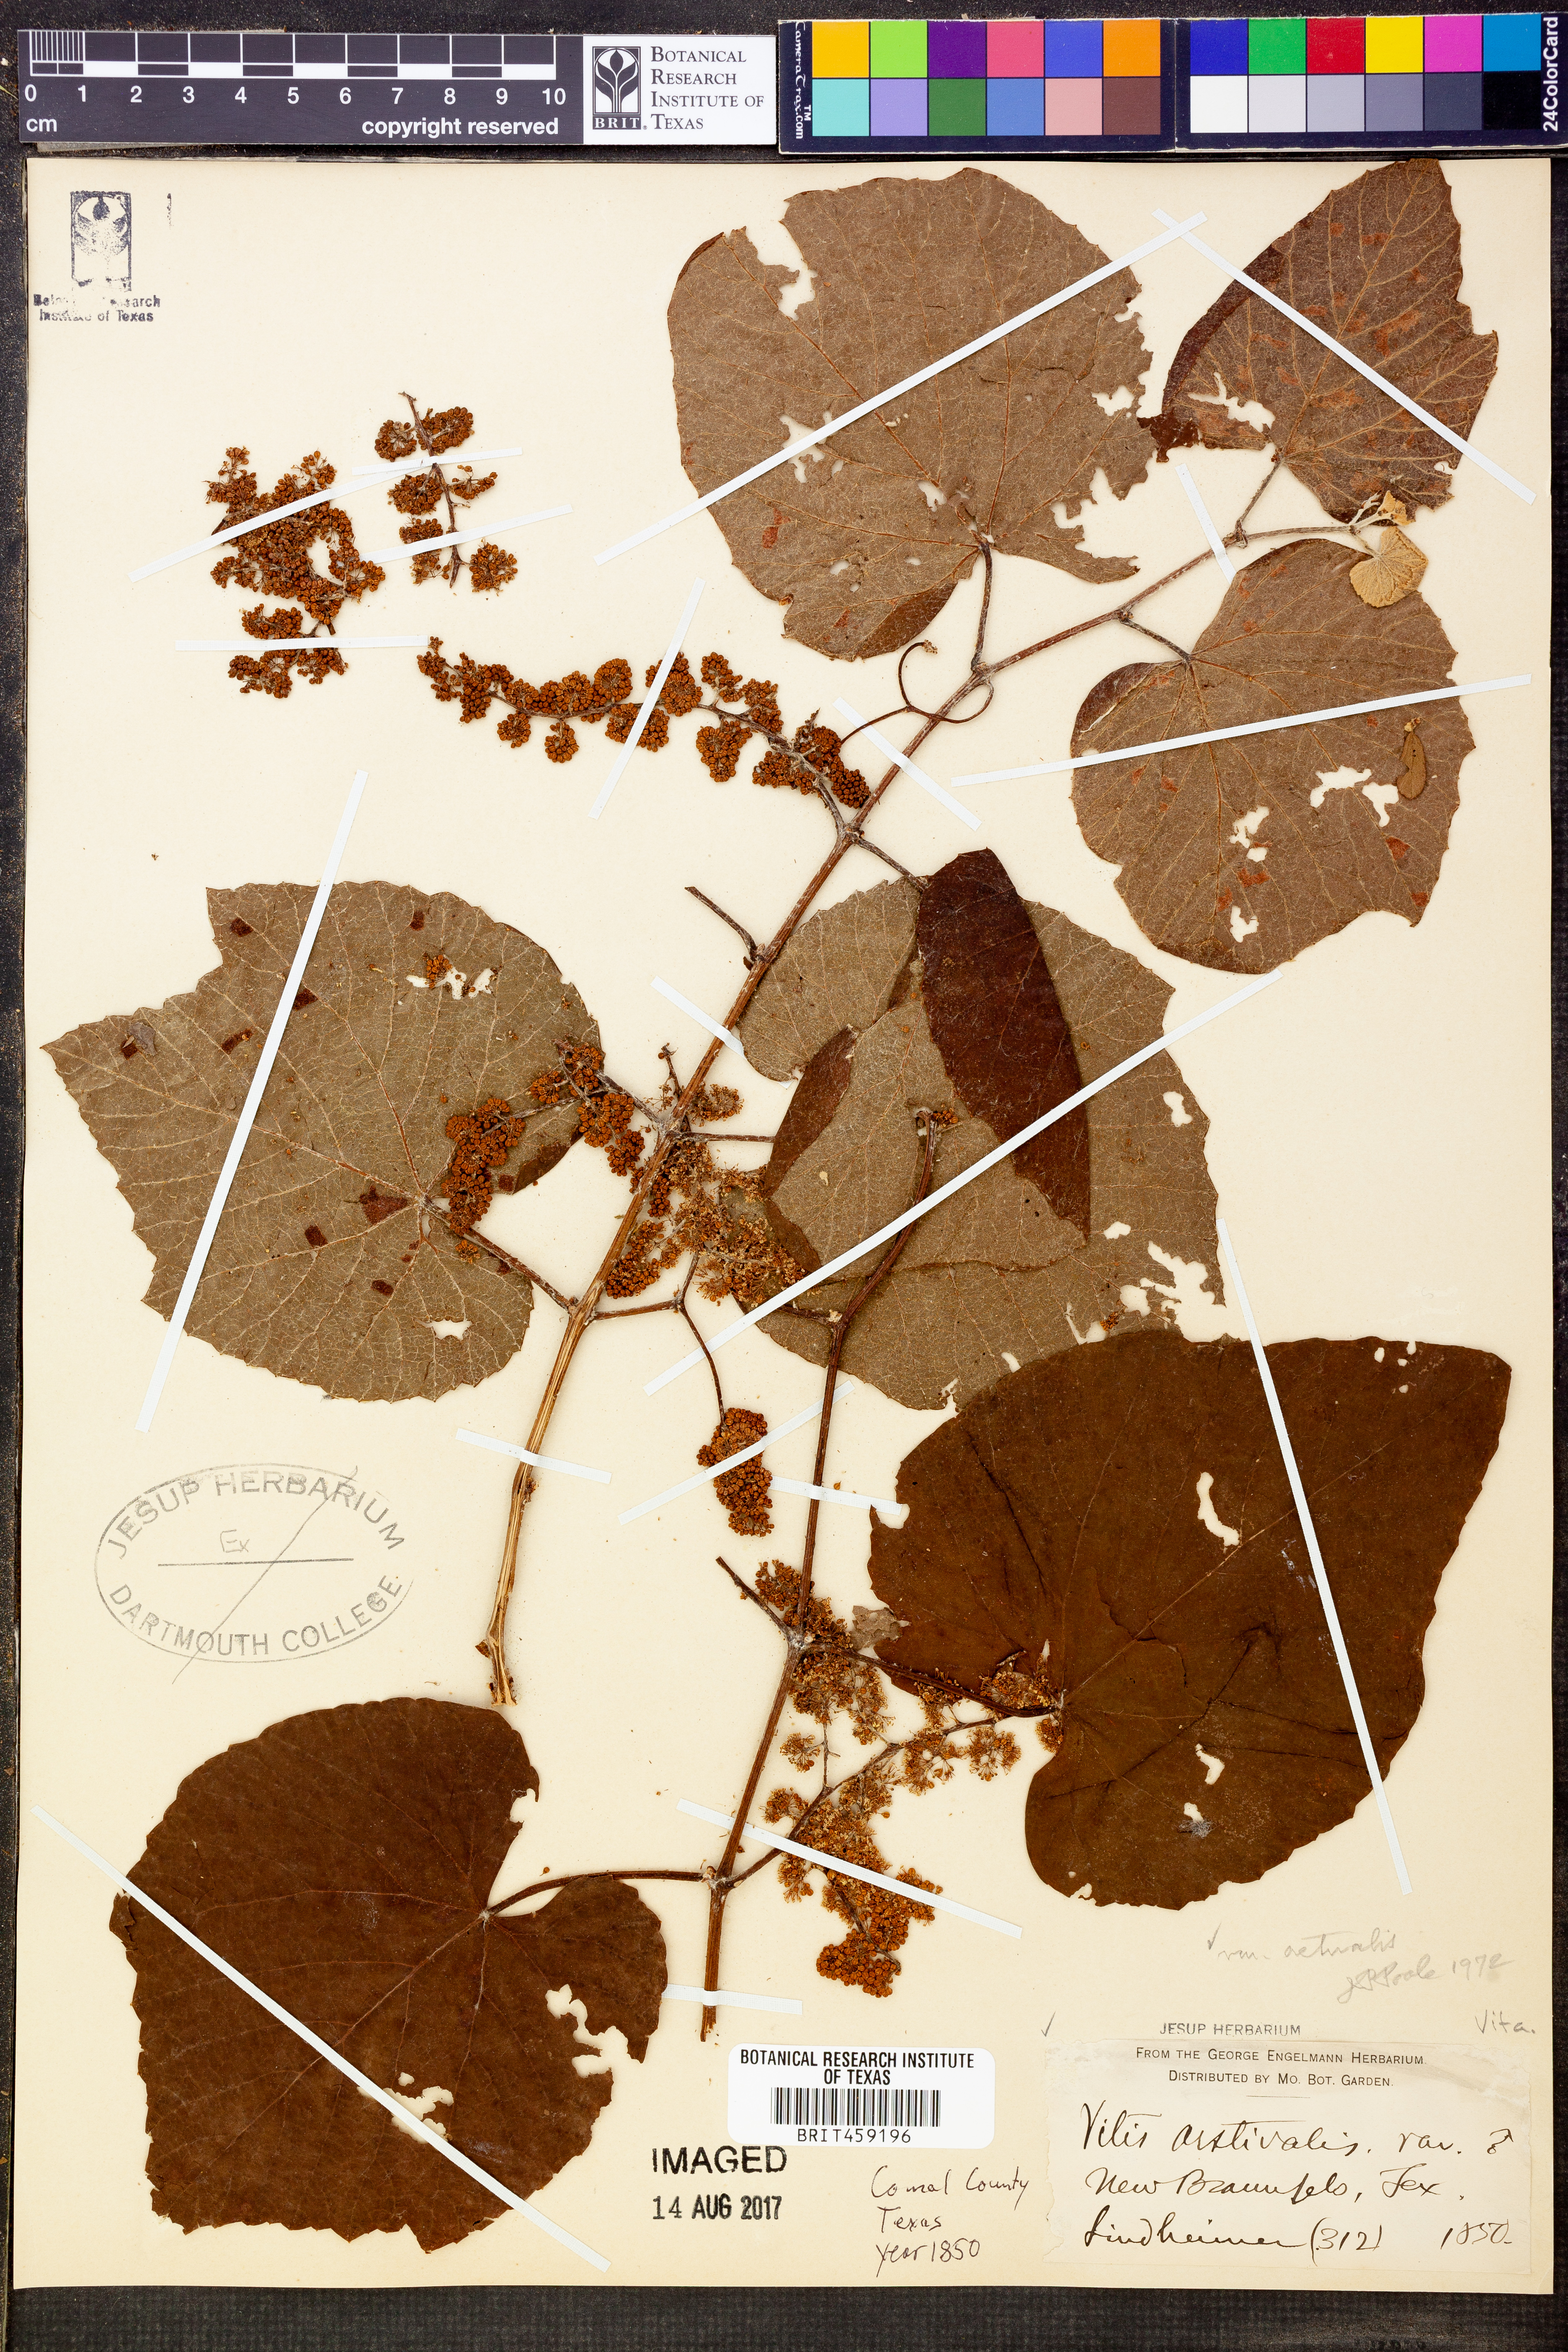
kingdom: Plantae
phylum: Tracheophyta
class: Magnoliopsida
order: Vitales
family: Vitaceae
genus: Vitis
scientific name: Vitis aestivalis
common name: Pigeon grape
